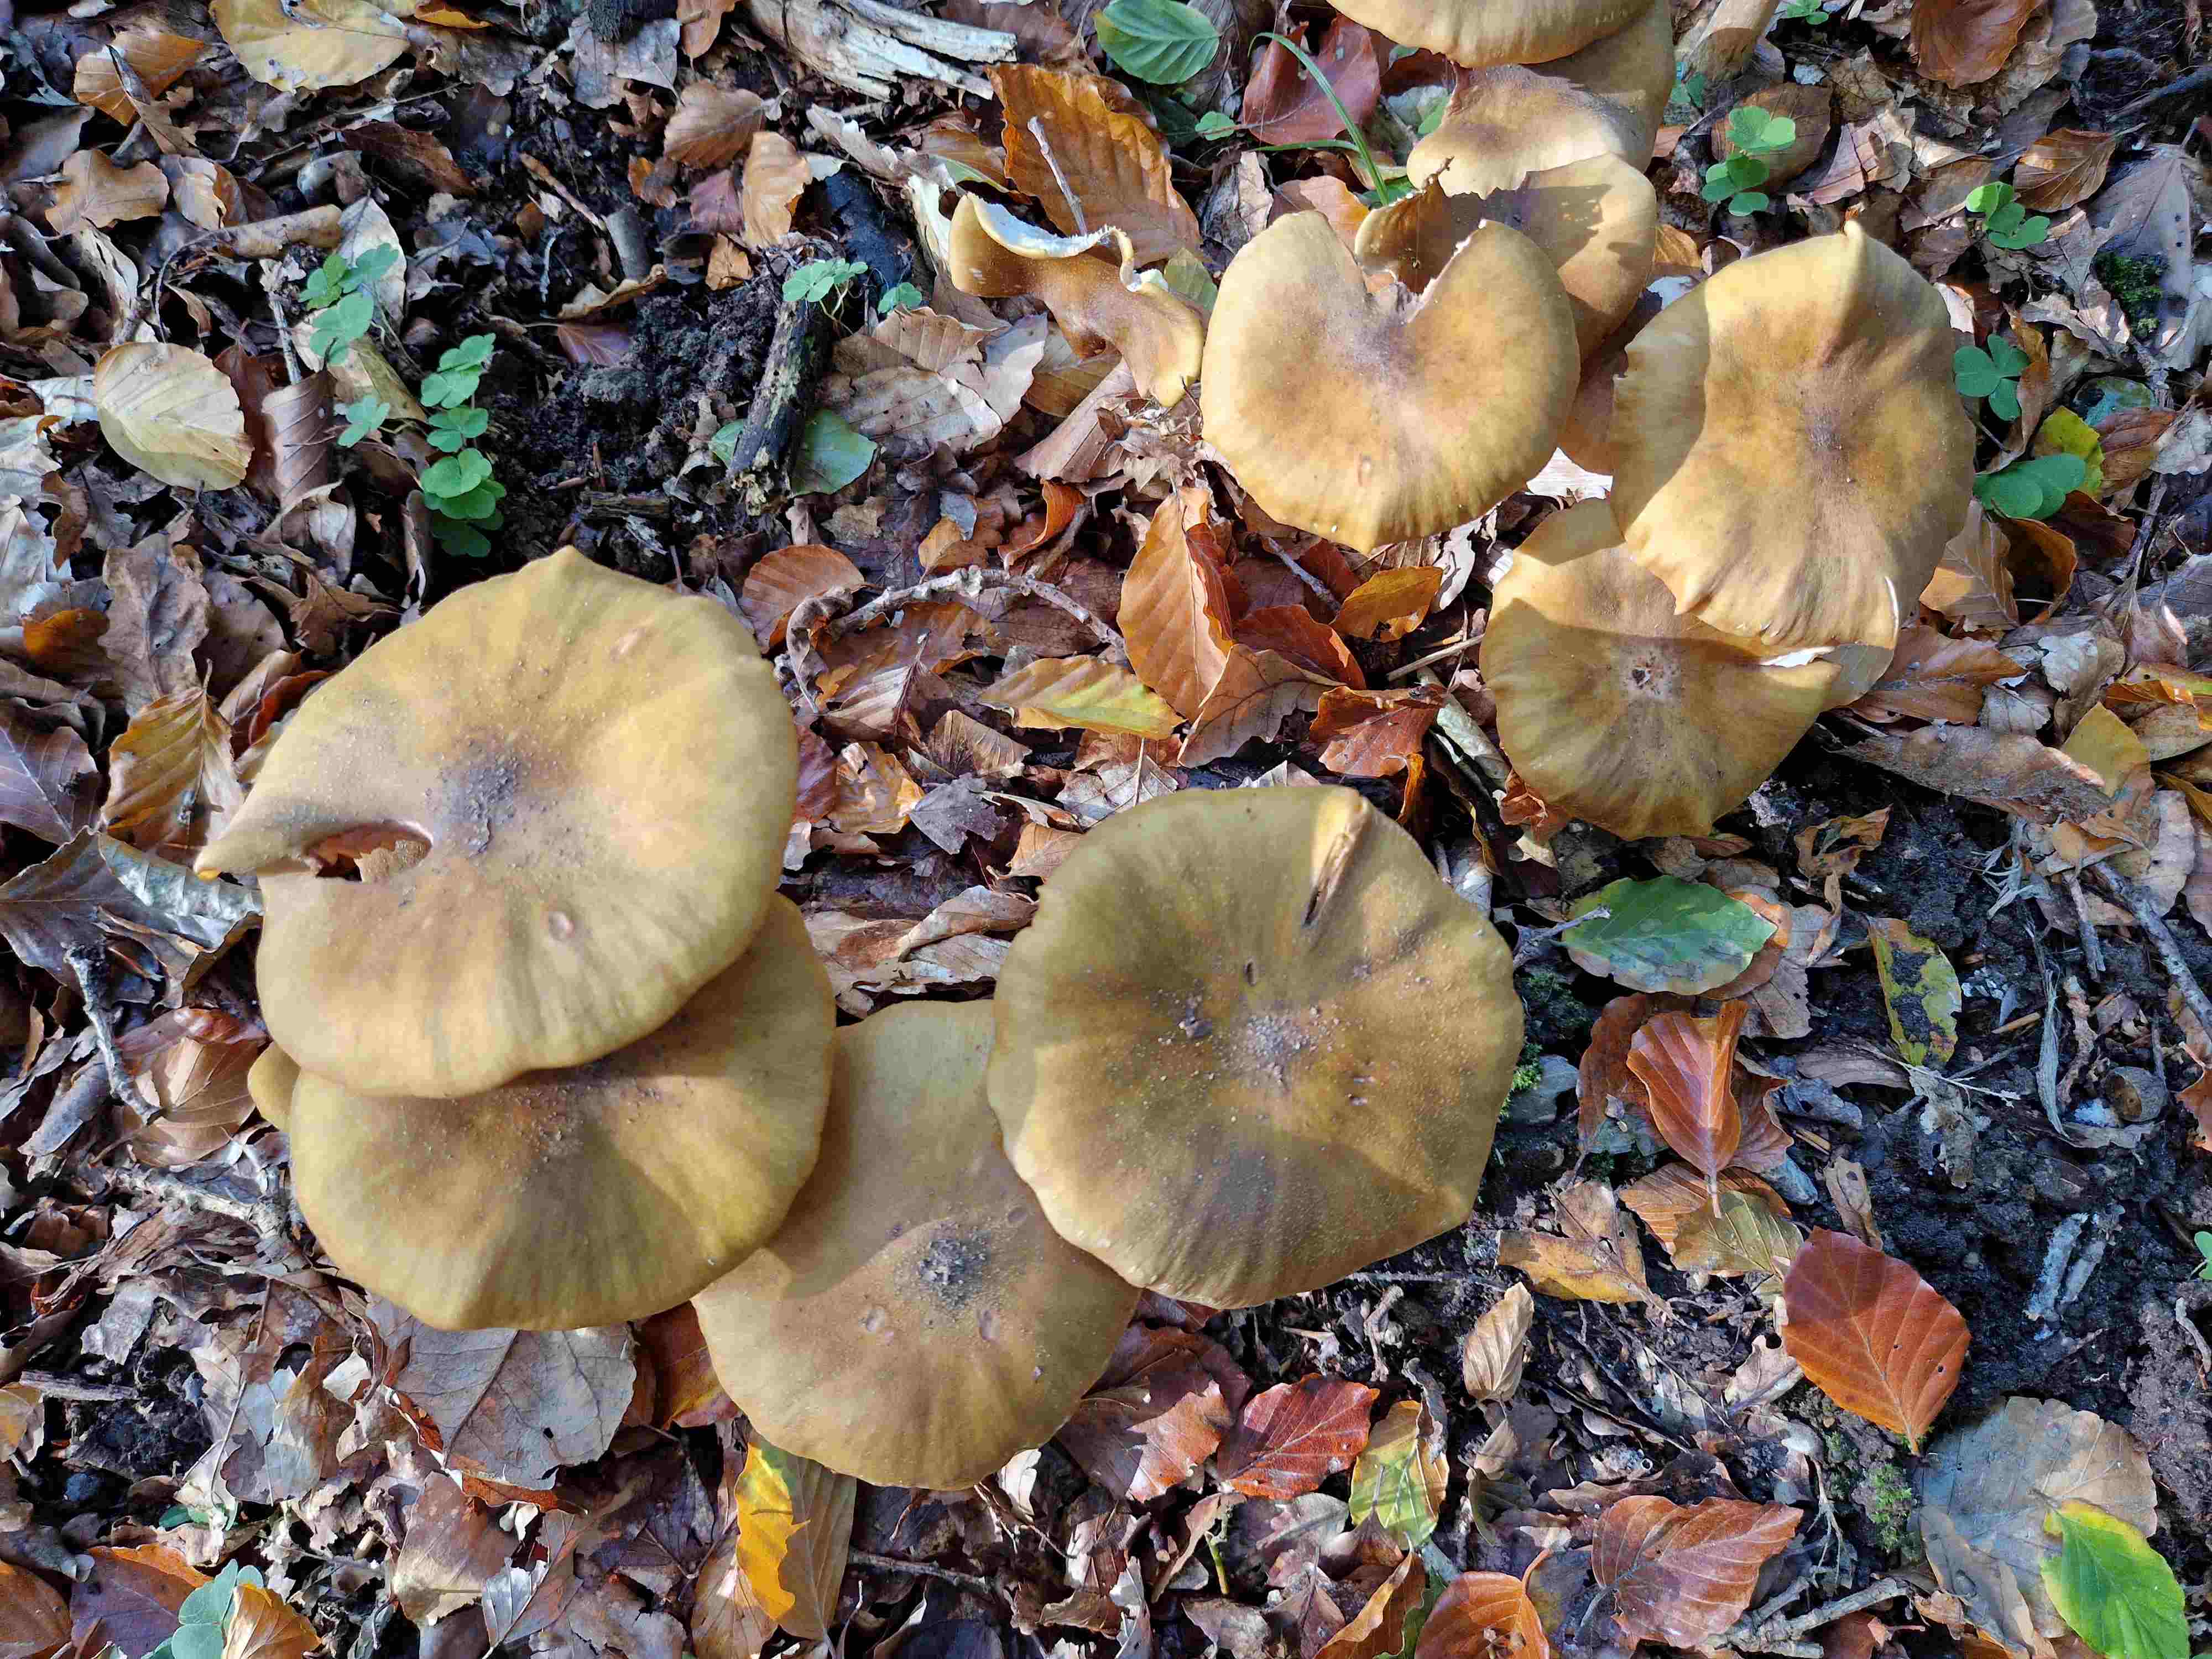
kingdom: Fungi
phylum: Basidiomycota
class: Agaricomycetes
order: Agaricales
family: Physalacriaceae
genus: Armillaria
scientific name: Armillaria lutea
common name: køllestokket honningsvamp
